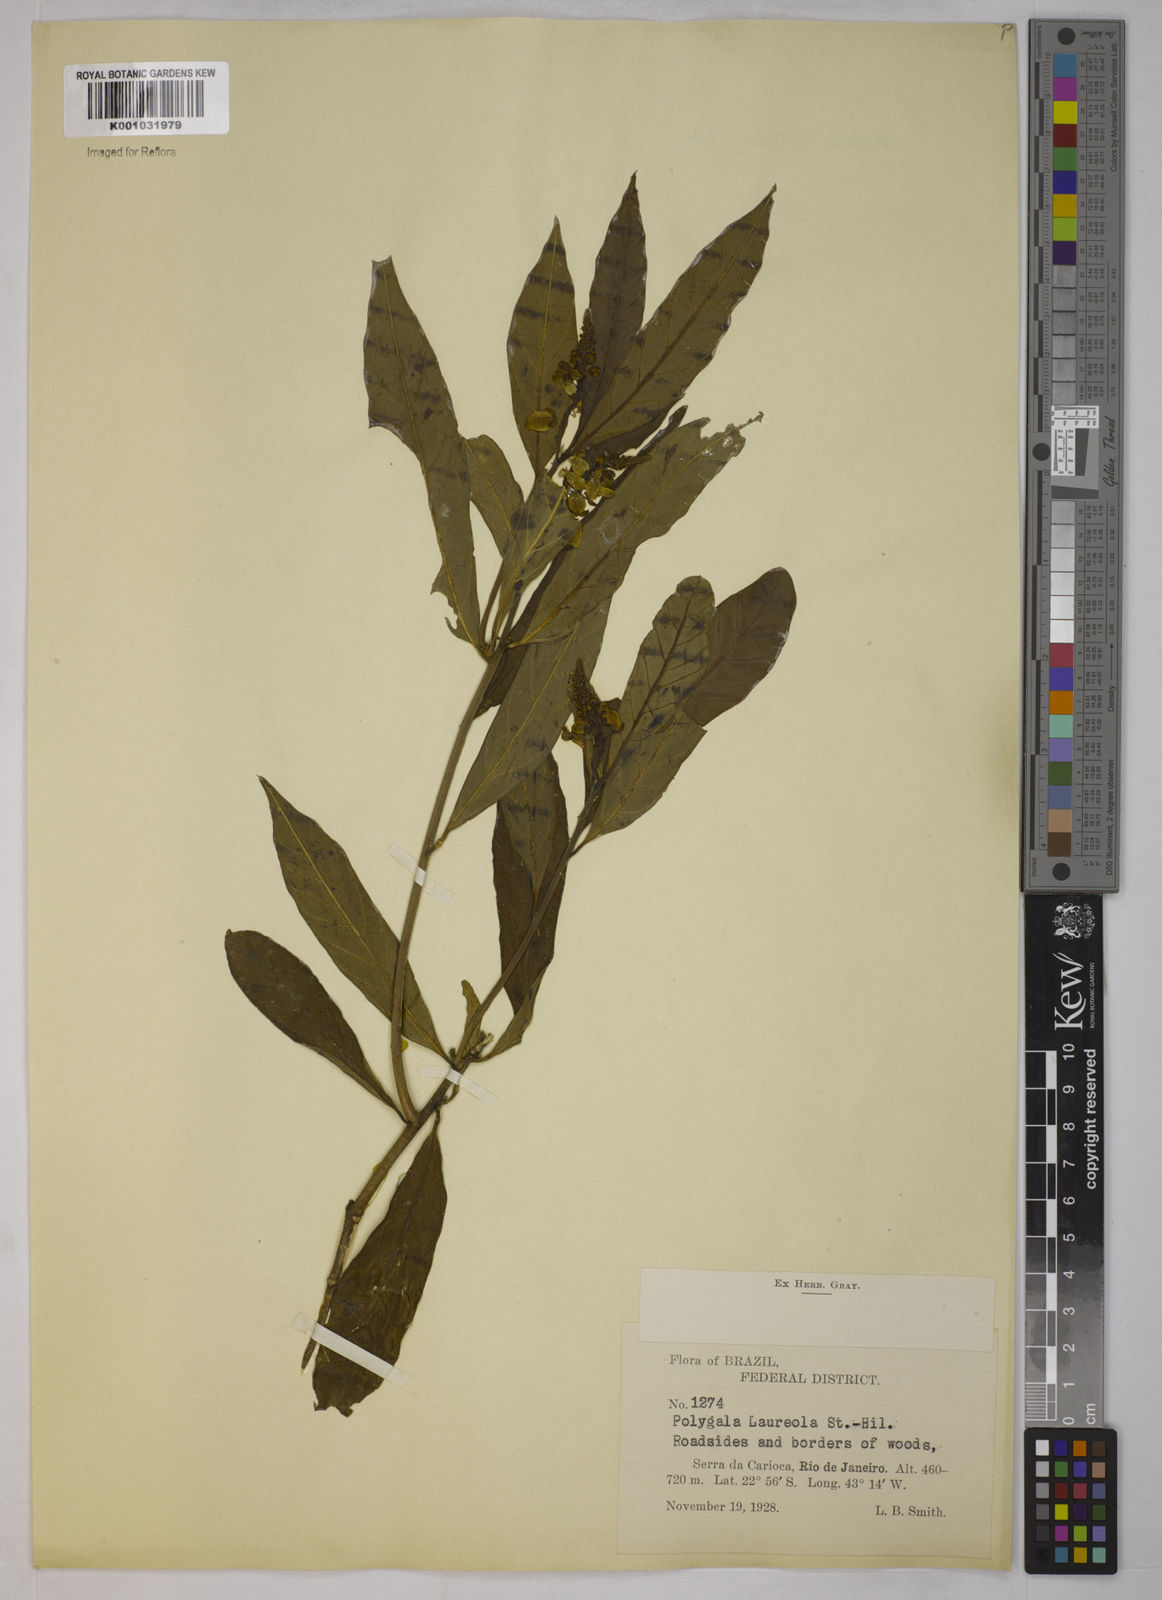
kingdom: Plantae
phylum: Tracheophyta
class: Magnoliopsida
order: Fabales
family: Polygalaceae
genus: Caamembeca
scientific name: Caamembeca salicifolia
